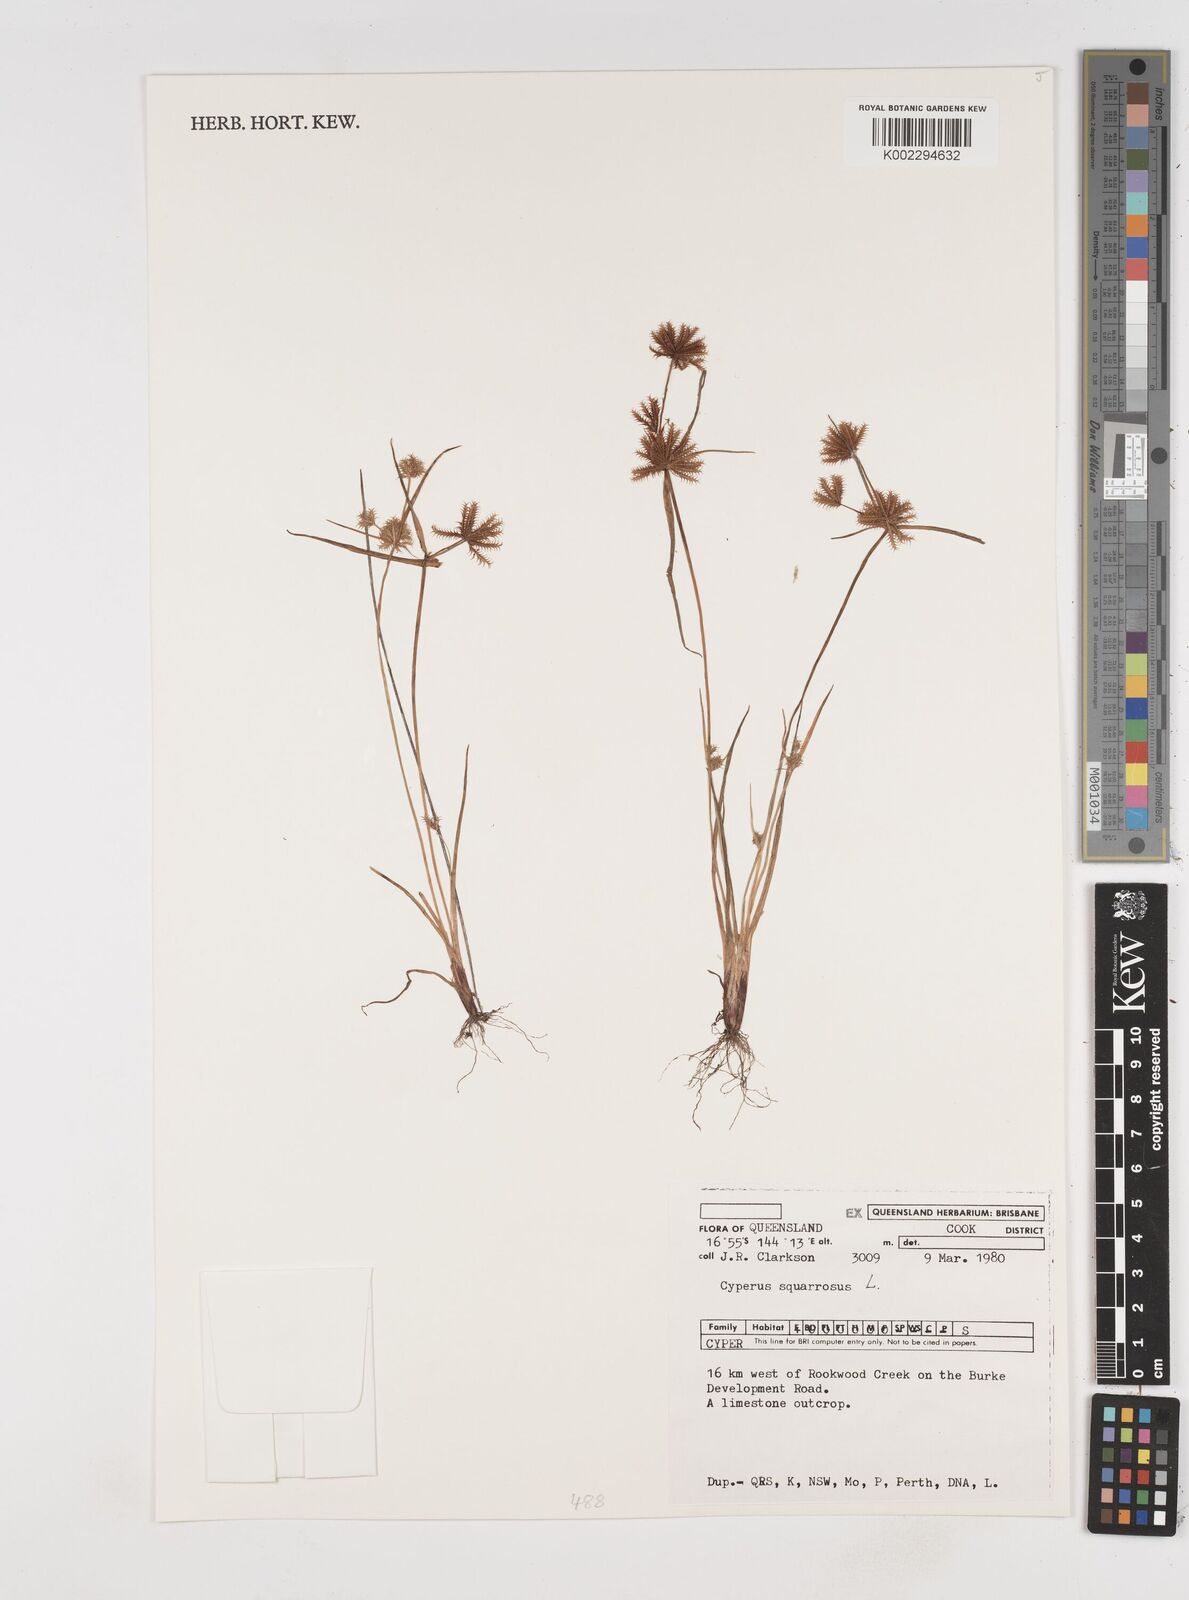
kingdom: Plantae
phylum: Tracheophyta
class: Liliopsida
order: Poales
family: Cyperaceae
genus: Cyperus
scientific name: Cyperus squarrosus
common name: Awned cyperus
